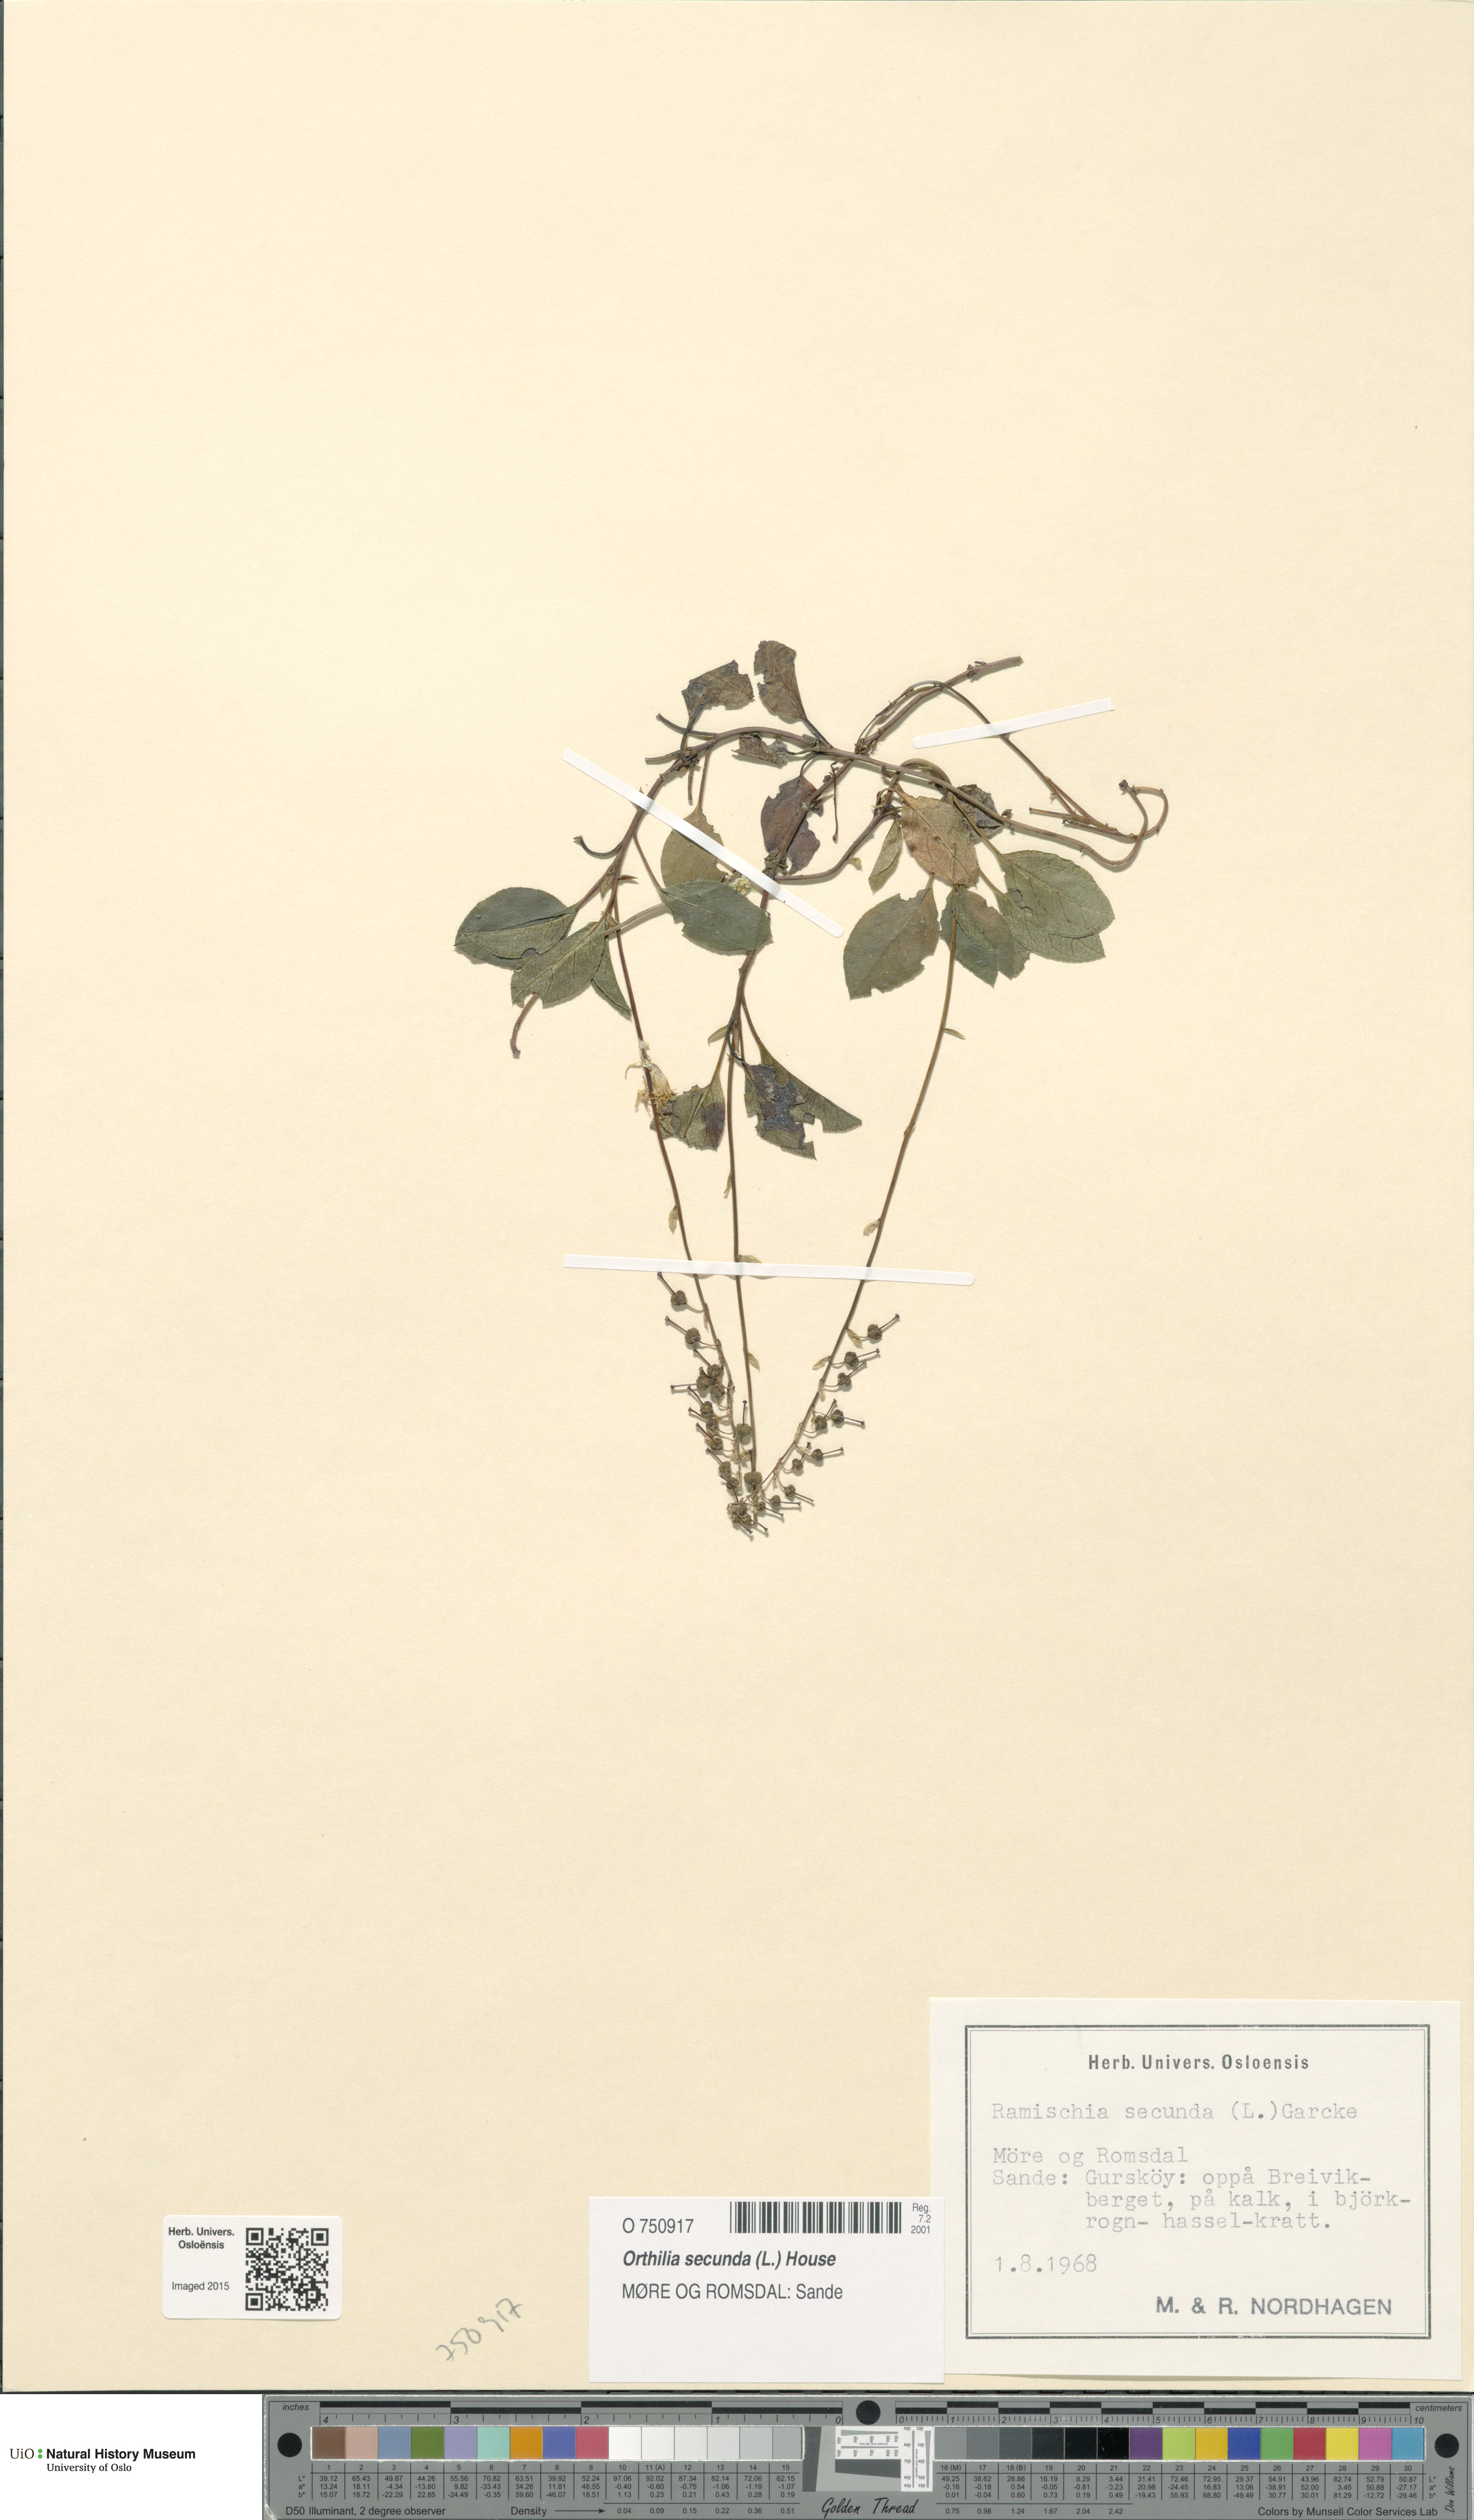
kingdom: Plantae
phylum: Tracheophyta
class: Magnoliopsida
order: Ericales
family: Ericaceae
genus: Orthilia
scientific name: Orthilia secunda
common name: One-sided orthilia
